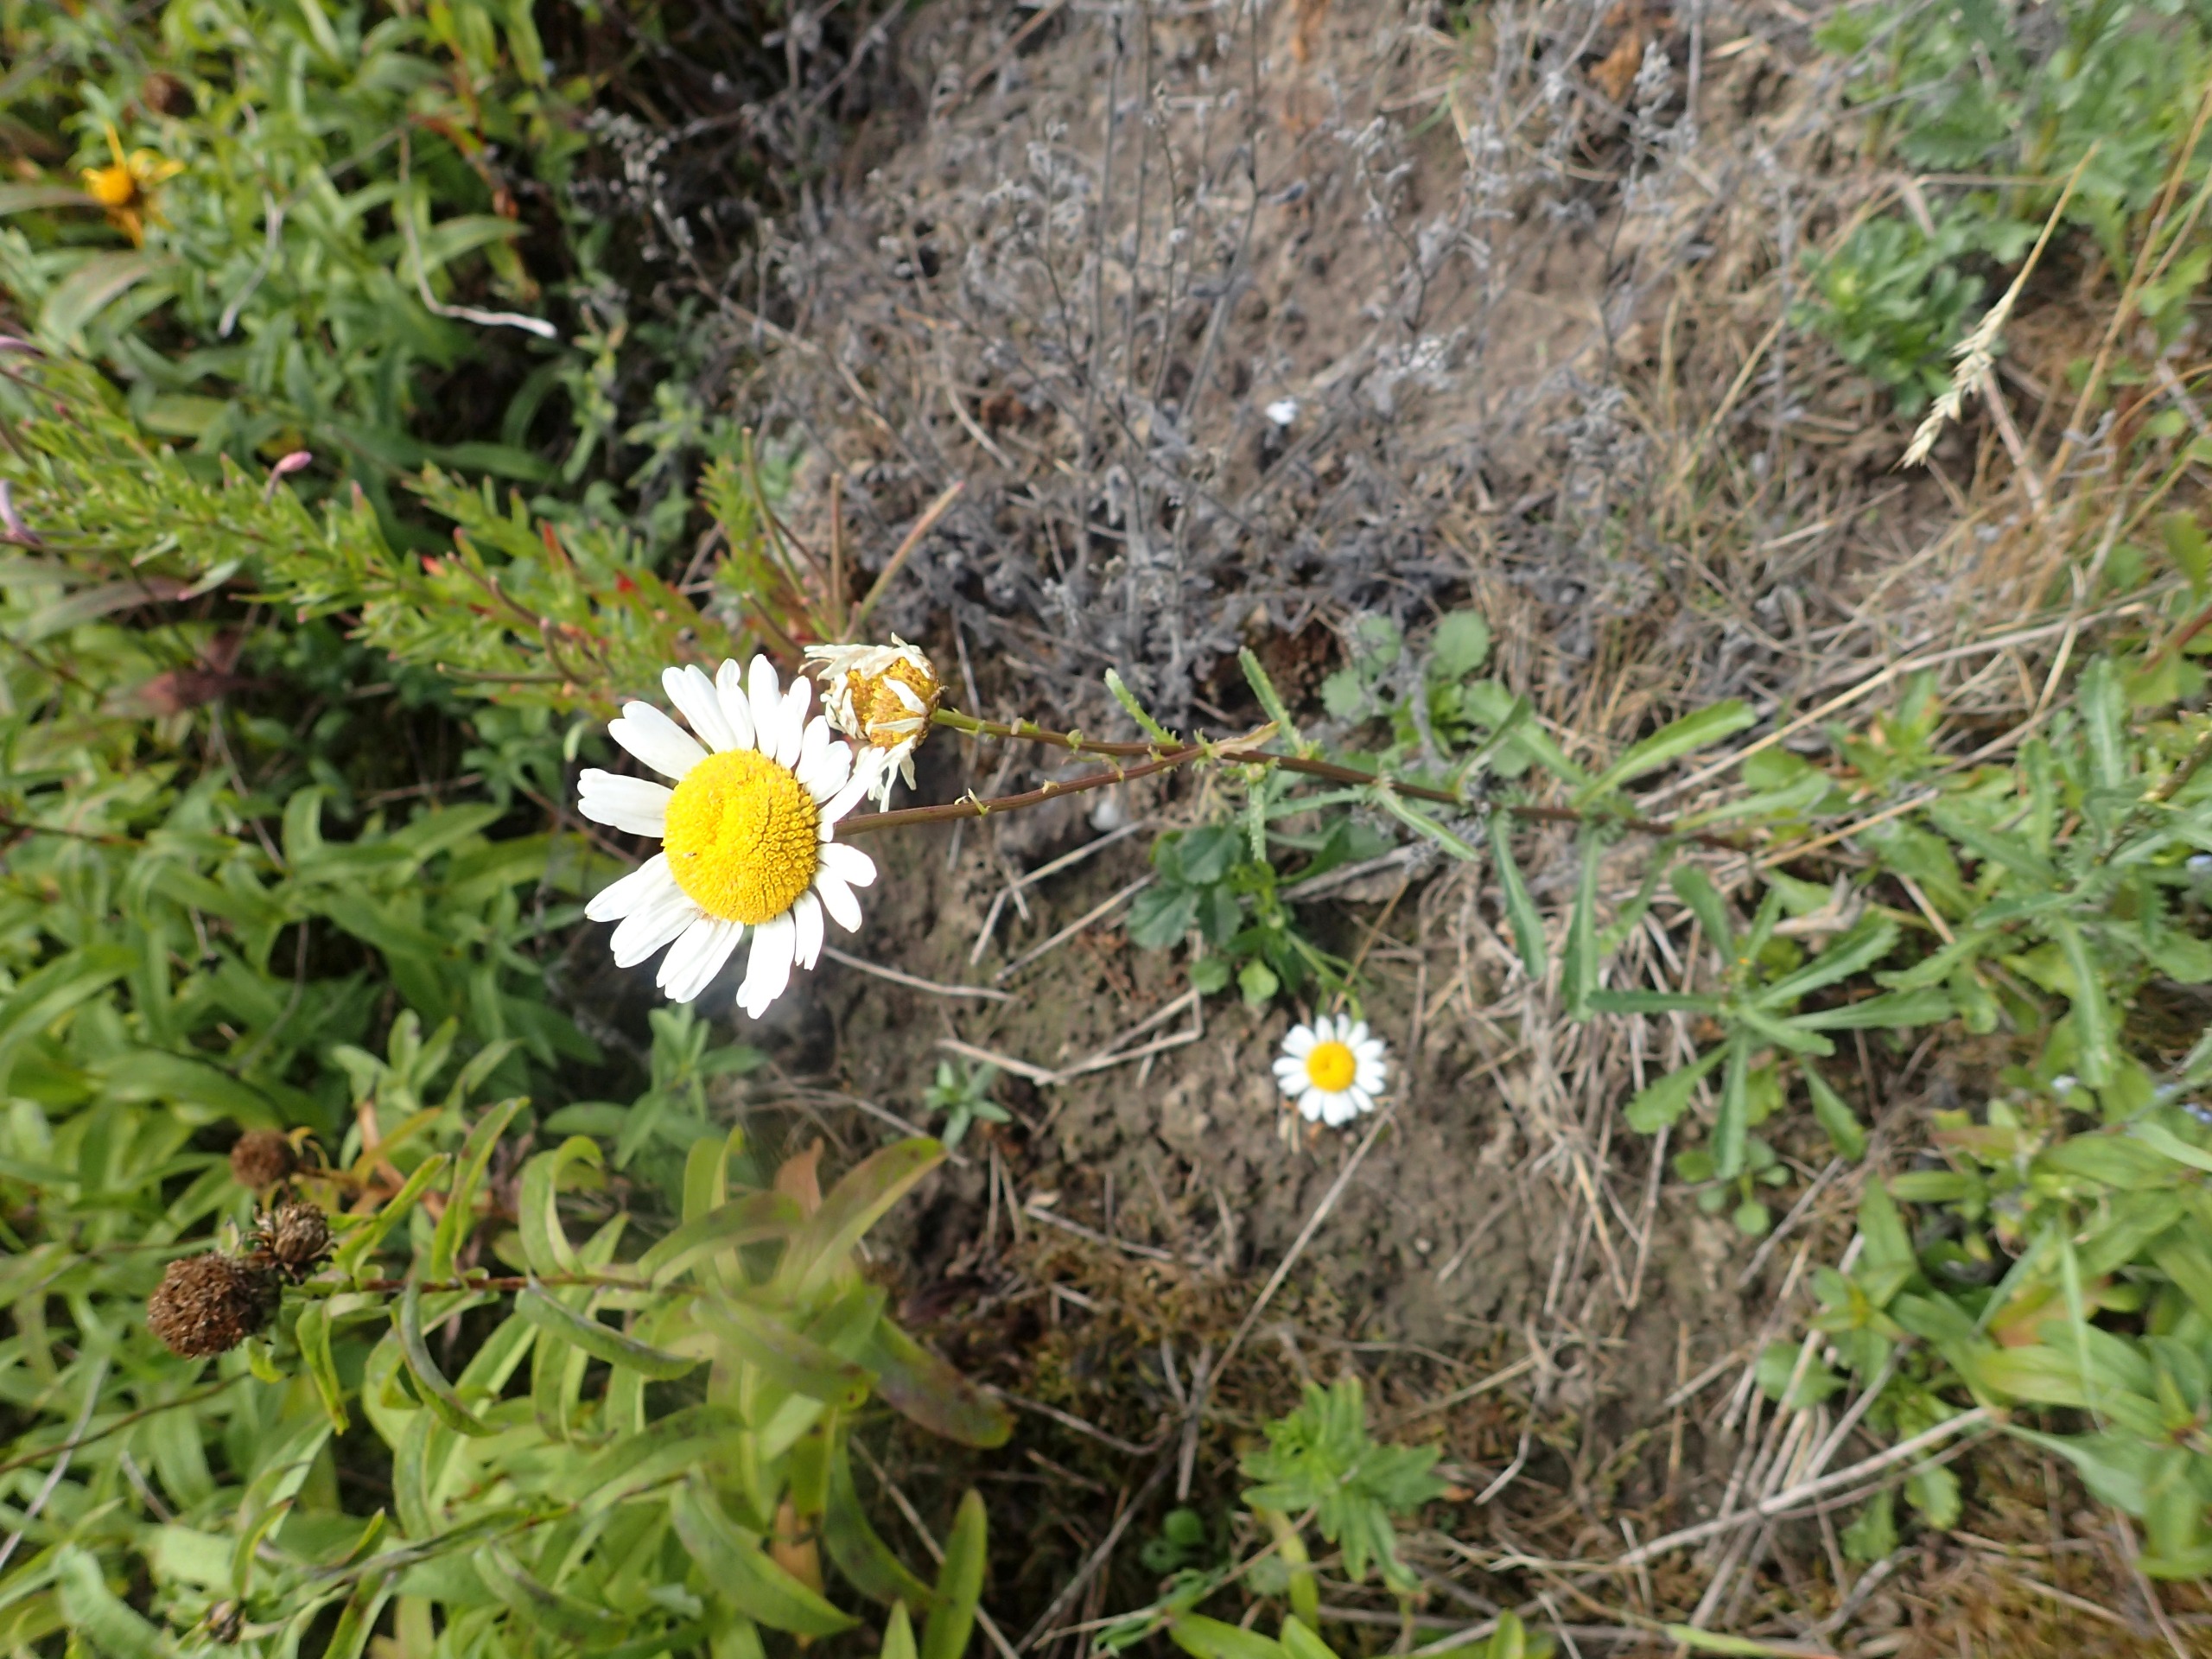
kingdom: Plantae
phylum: Tracheophyta
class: Magnoliopsida
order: Asterales
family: Asteraceae
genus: Leucanthemum
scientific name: Leucanthemum vulgare
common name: Hvid okseøje
